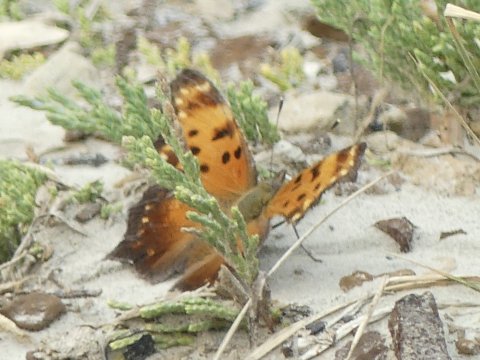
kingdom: Animalia
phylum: Arthropoda
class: Insecta
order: Lepidoptera
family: Nymphalidae
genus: Polygonia
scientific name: Polygonia progne
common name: Gray Comma
